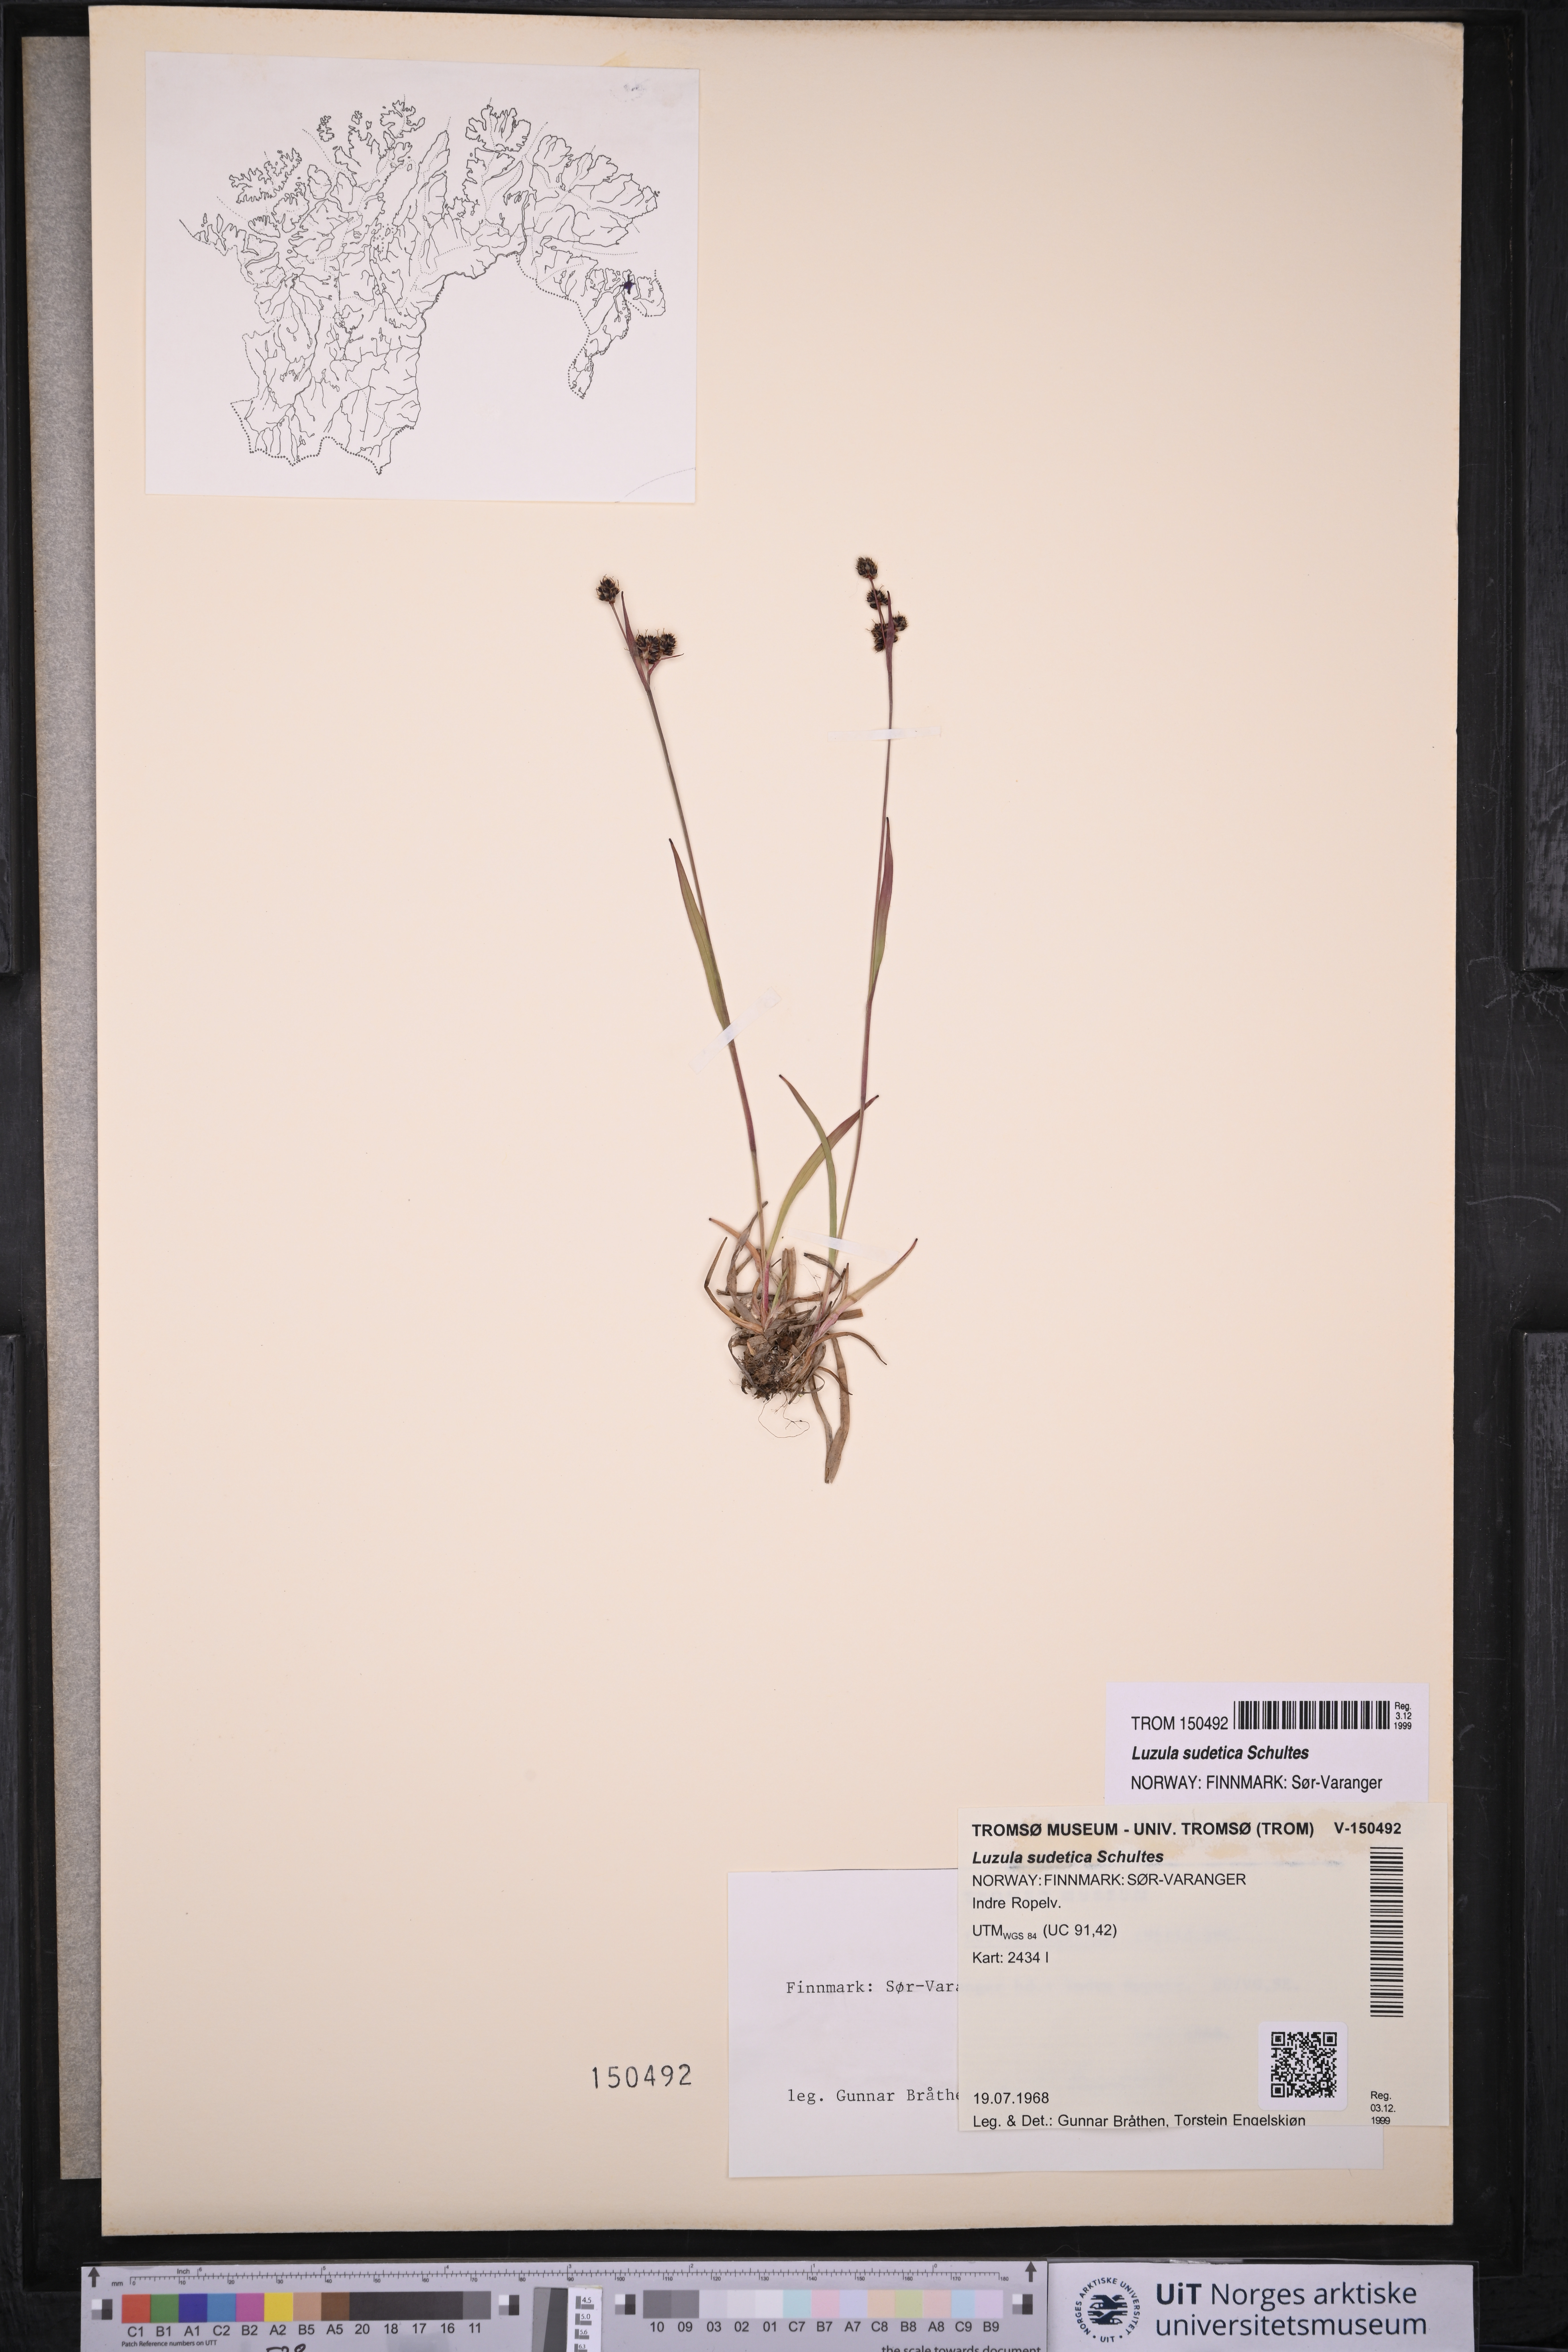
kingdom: Plantae
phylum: Tracheophyta
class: Liliopsida
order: Poales
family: Juncaceae
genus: Luzula
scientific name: Luzula sudetica
